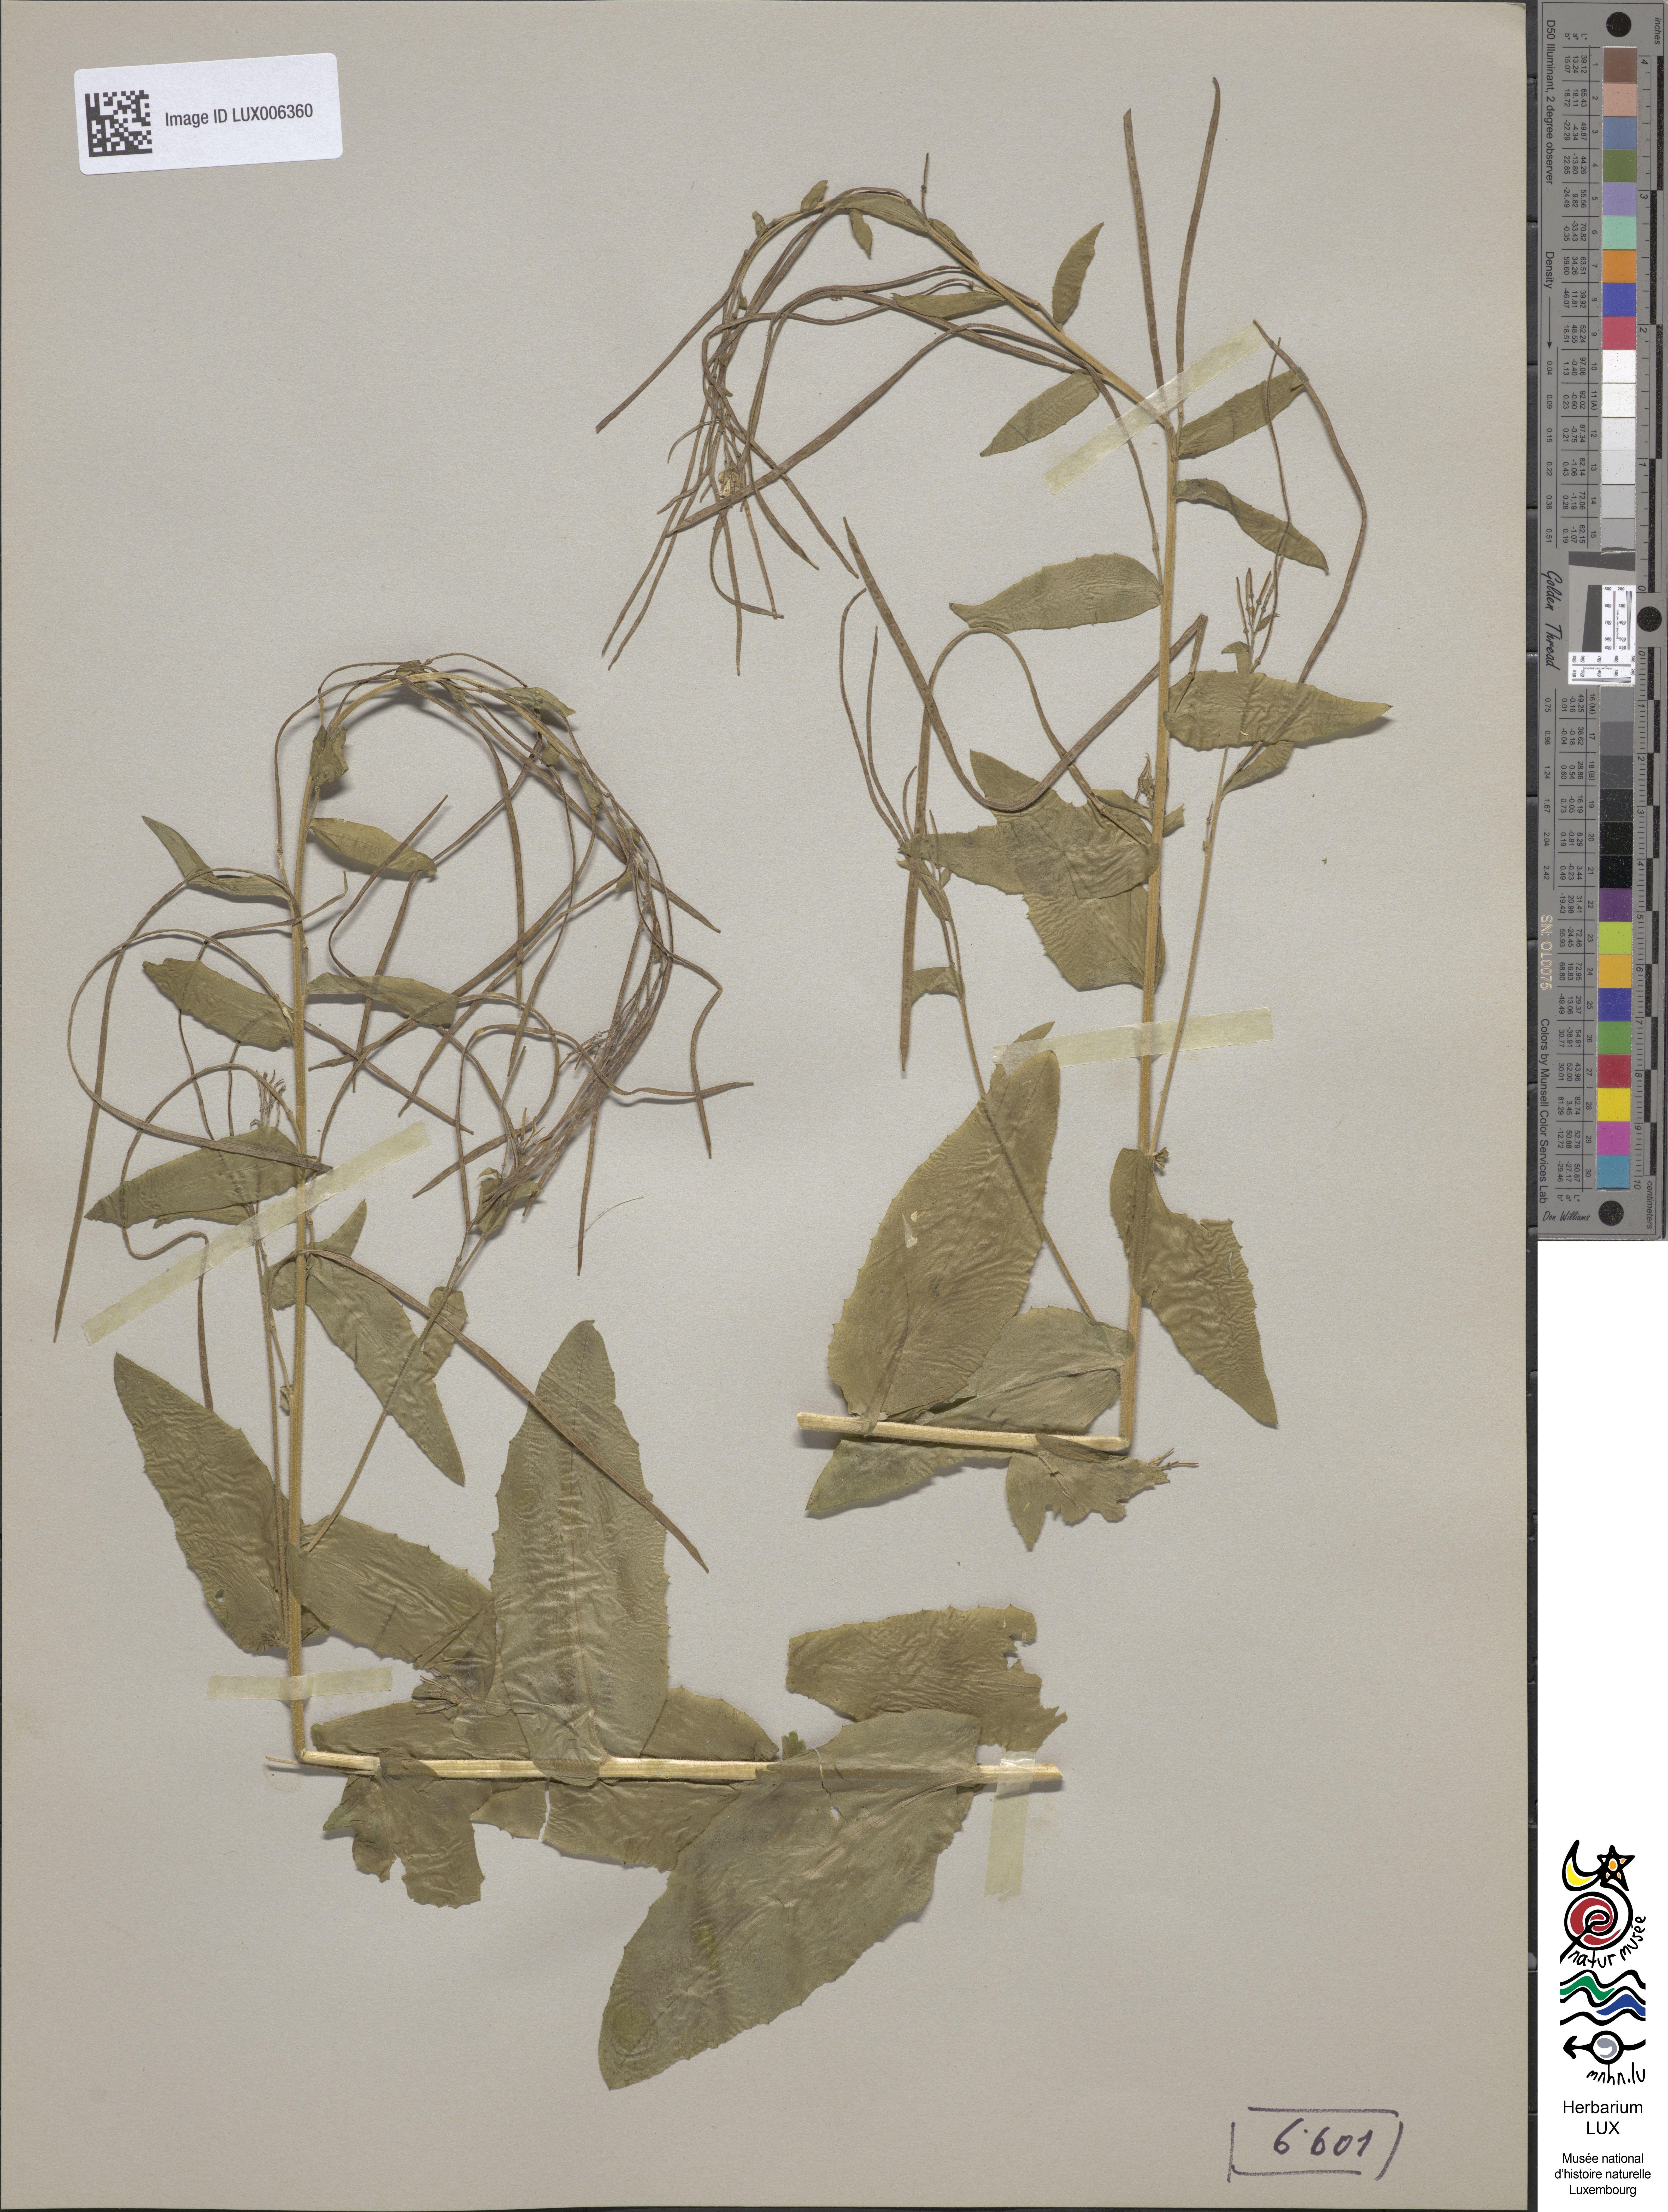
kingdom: Plantae
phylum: Tracheophyta
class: Magnoliopsida
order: Brassicales
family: Brassicaceae
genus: Pseudoturritis
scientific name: Pseudoturritis turrita
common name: Tower cress
